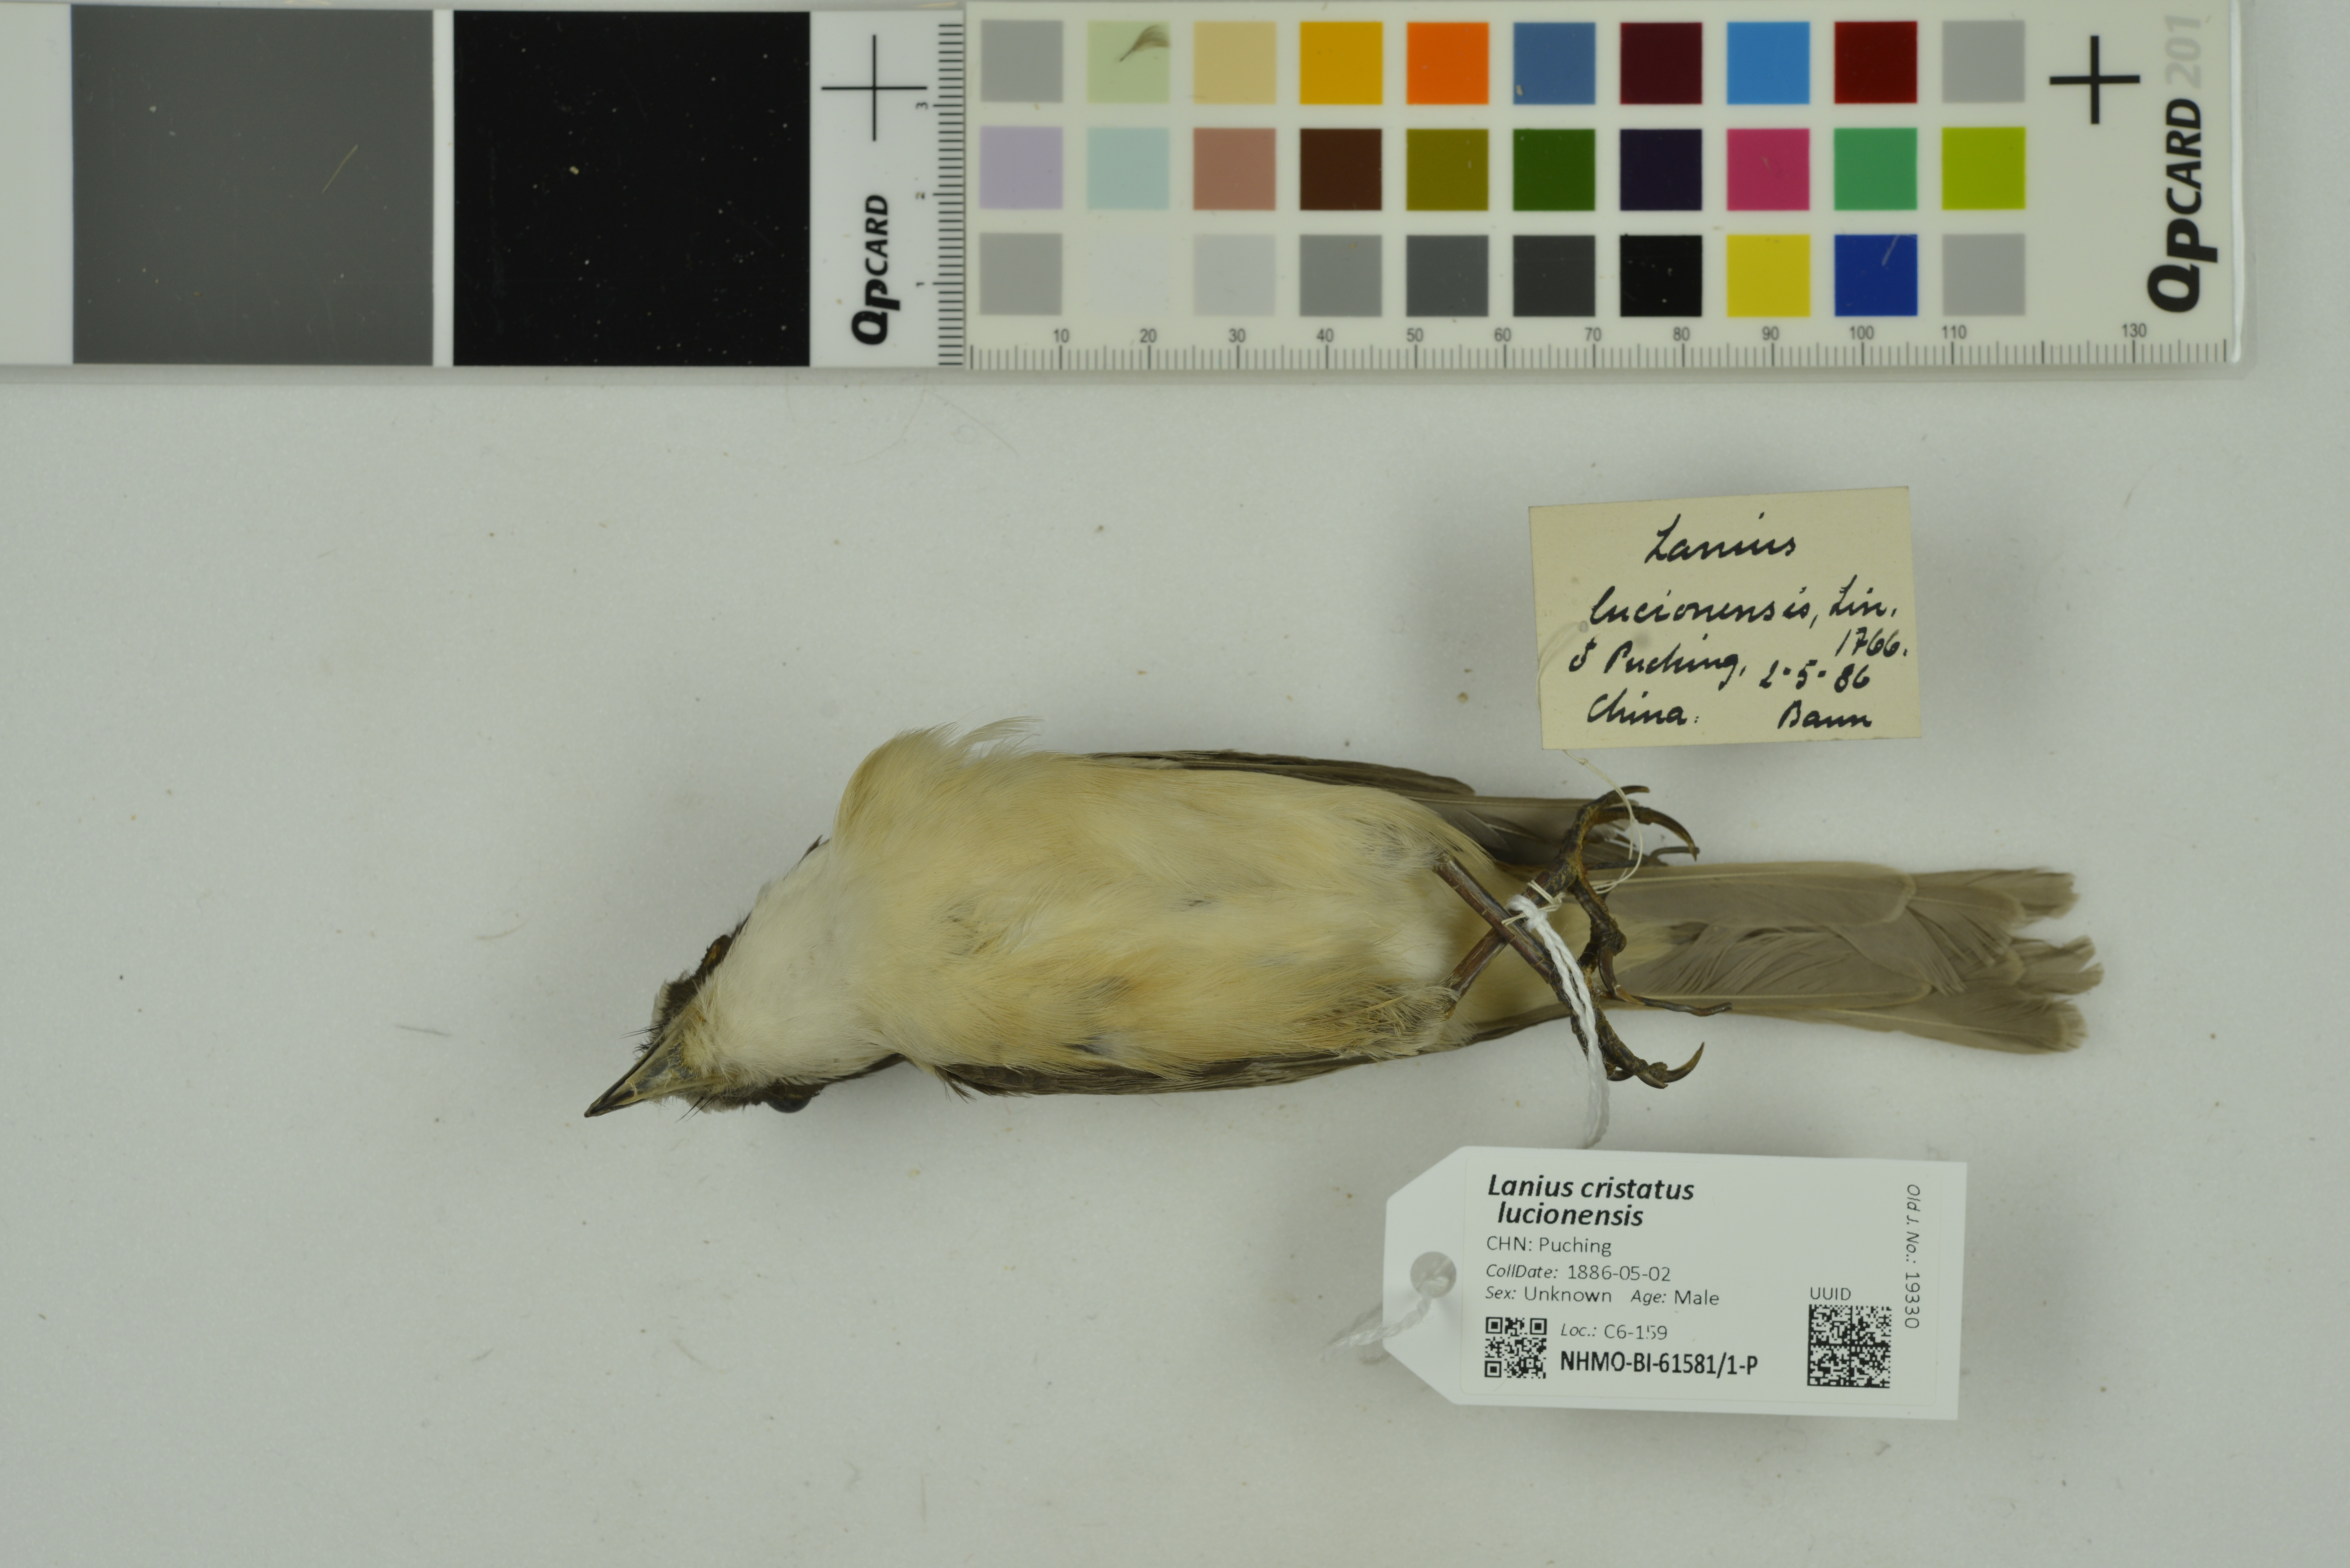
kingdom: Animalia
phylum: Chordata
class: Aves
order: Passeriformes
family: Laniidae
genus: Lanius
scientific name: Lanius cristatus
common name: Brown shrike
